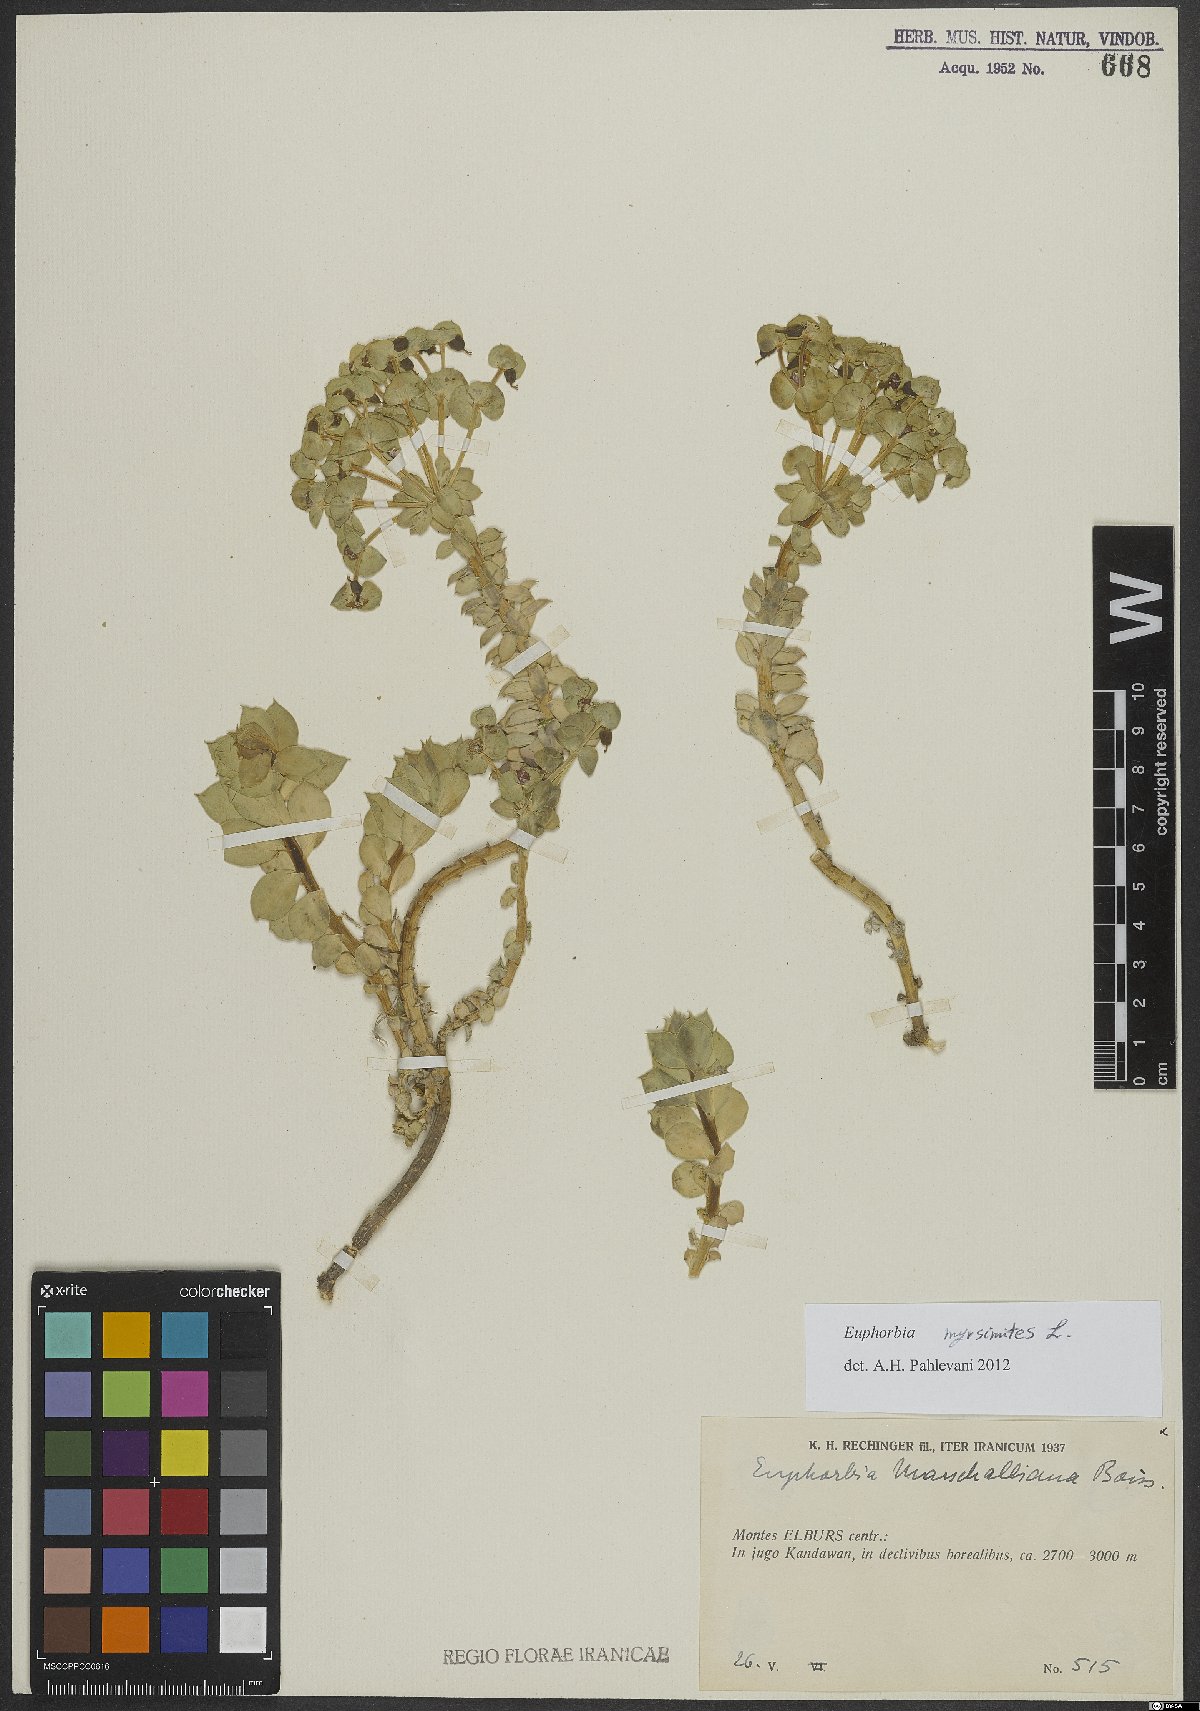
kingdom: Plantae
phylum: Tracheophyta
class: Magnoliopsida
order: Malpighiales
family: Euphorbiaceae
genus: Euphorbia
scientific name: Euphorbia myrsinites
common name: Myrtle spurge
